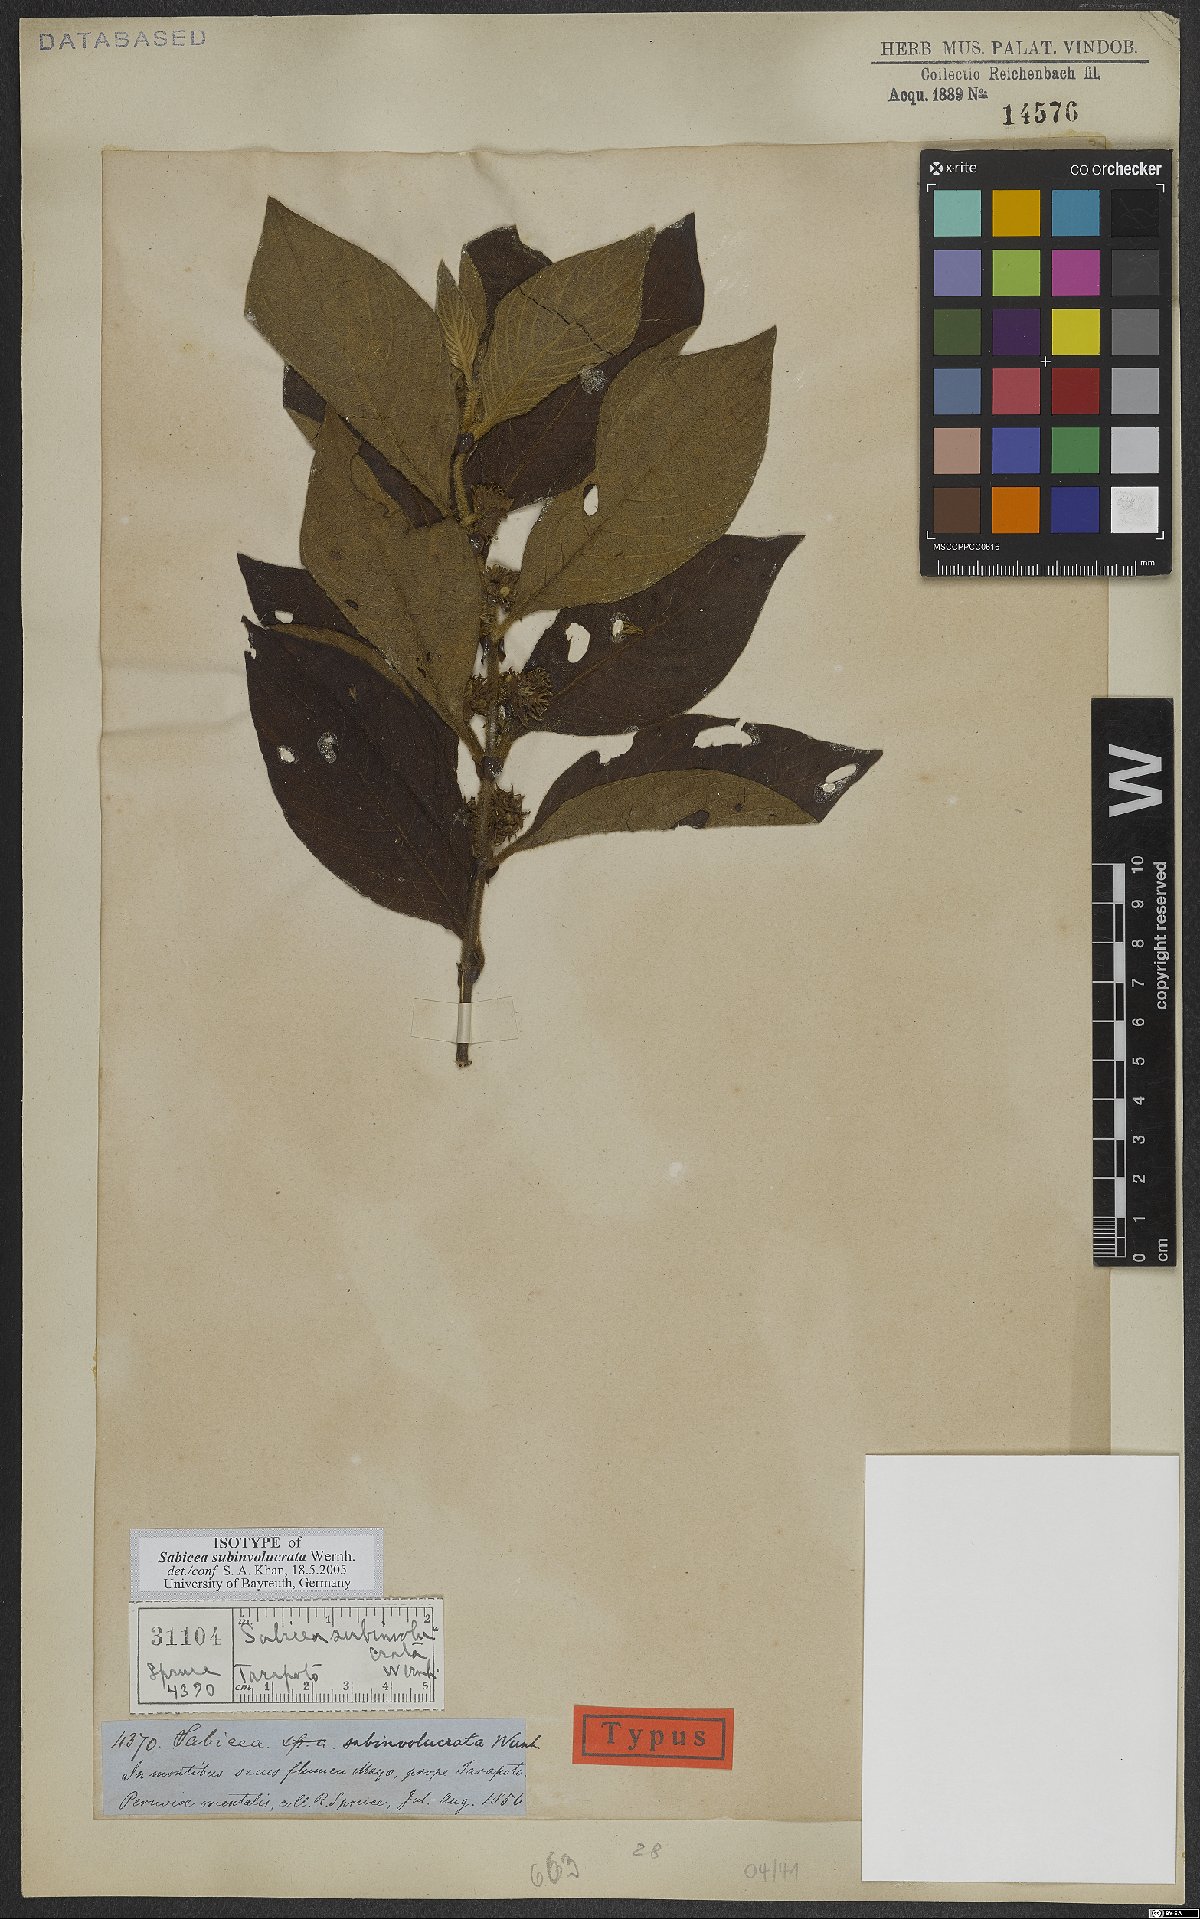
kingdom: Plantae
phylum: Tracheophyta
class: Magnoliopsida
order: Gentianales
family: Rubiaceae
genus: Sabicea
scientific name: Sabicea subinvolucrata
